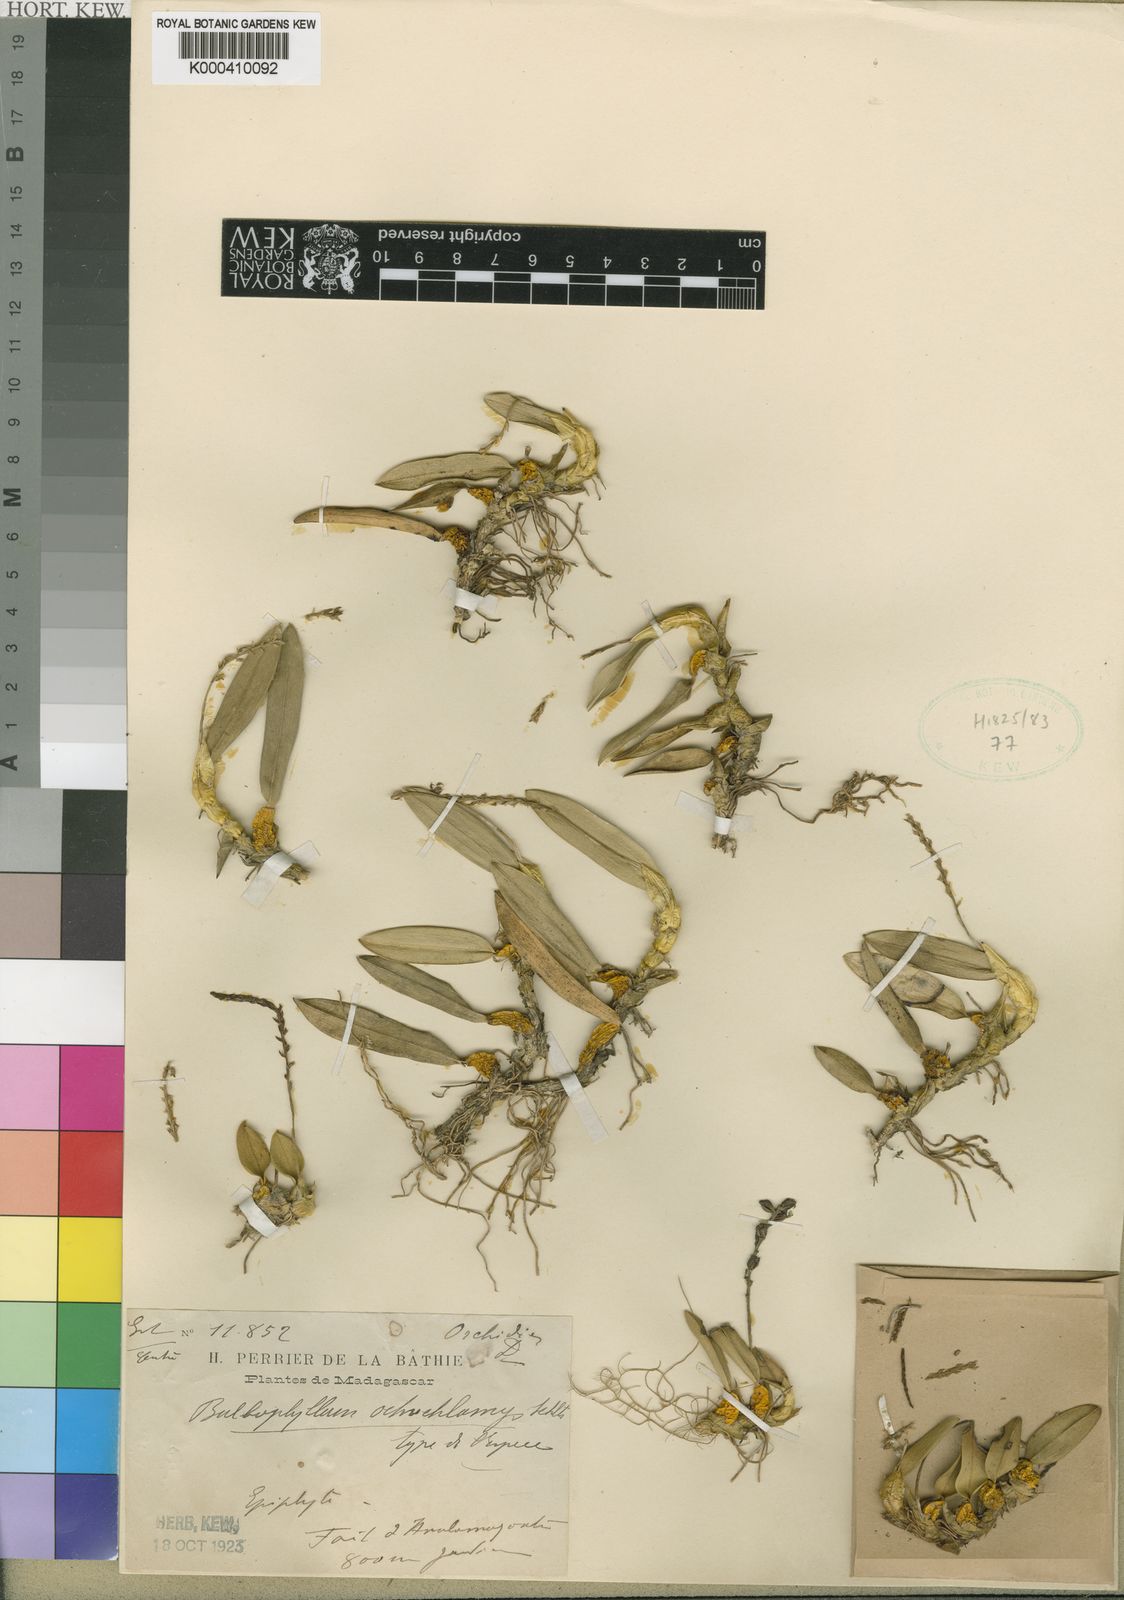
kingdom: Plantae
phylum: Tracheophyta
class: Liliopsida
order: Asparagales
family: Orchidaceae
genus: Bulbophyllum
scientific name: Bulbophyllum vakonae
